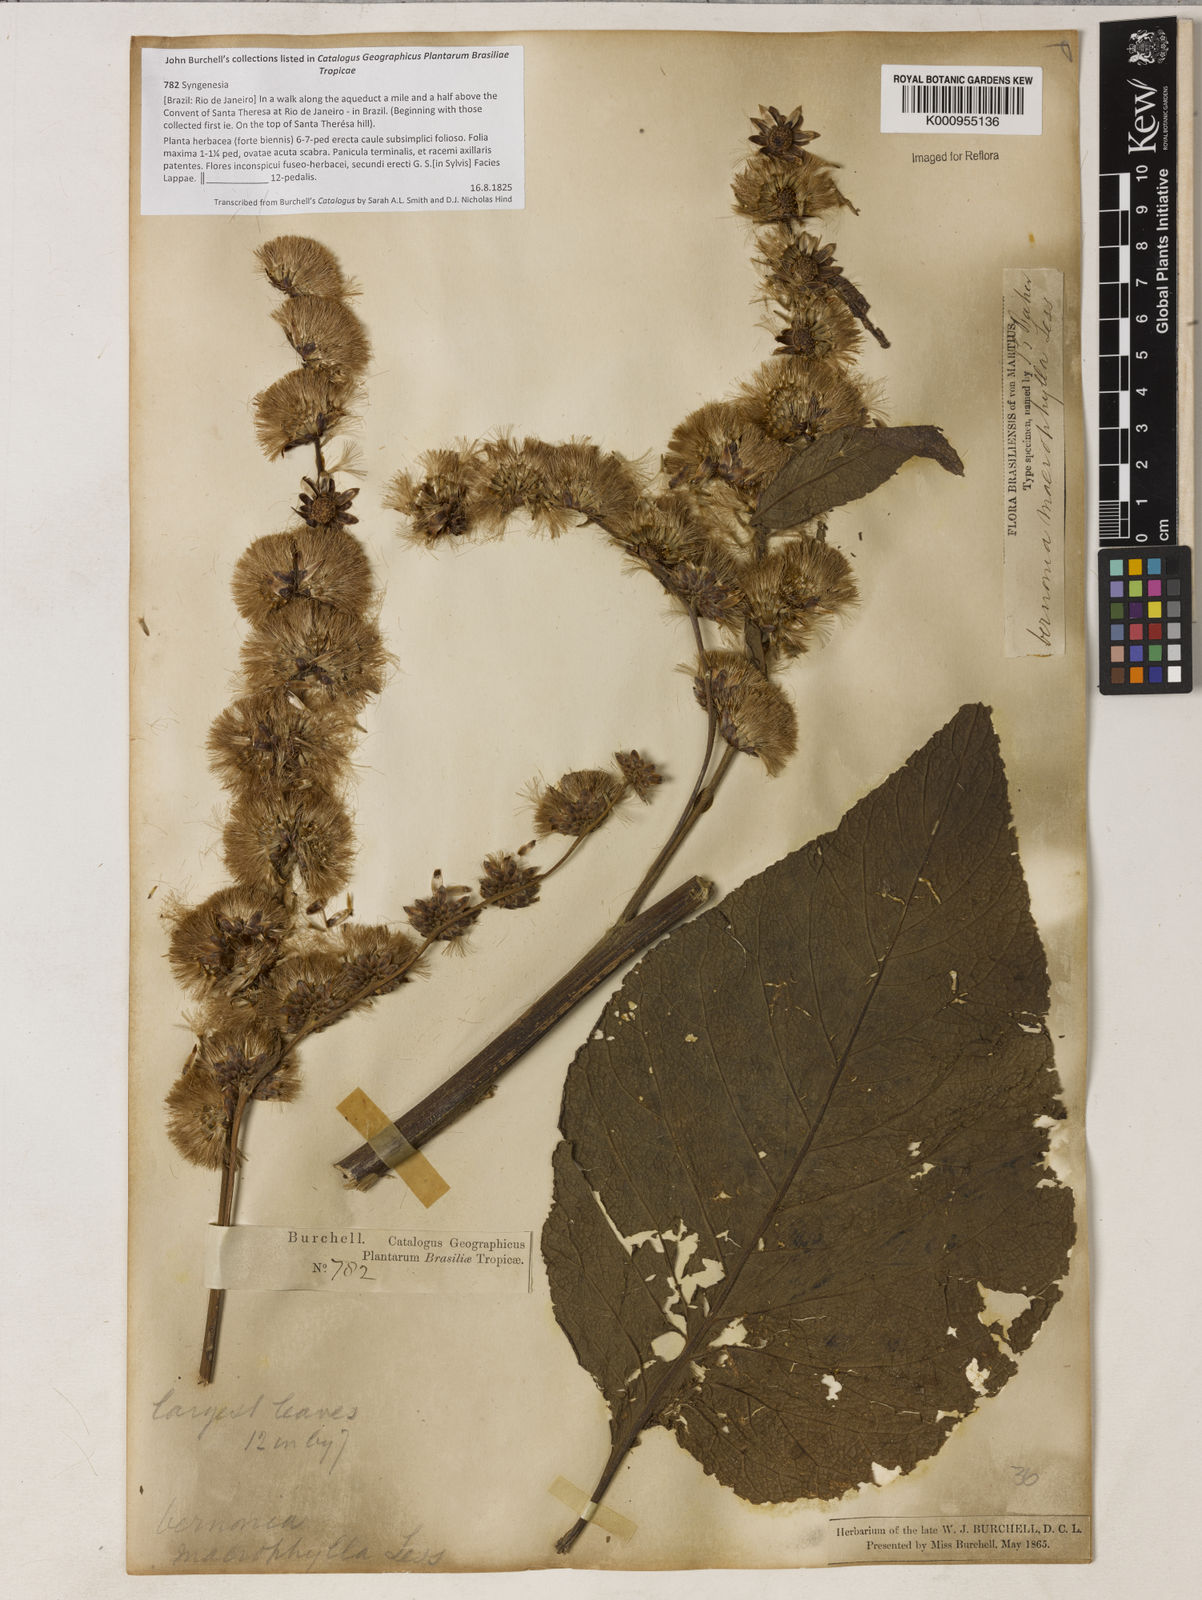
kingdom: Plantae
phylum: Tracheophyta
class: Magnoliopsida
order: Asterales
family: Asteraceae
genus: Lessingianthus
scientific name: Lessingianthus macrophyllus
